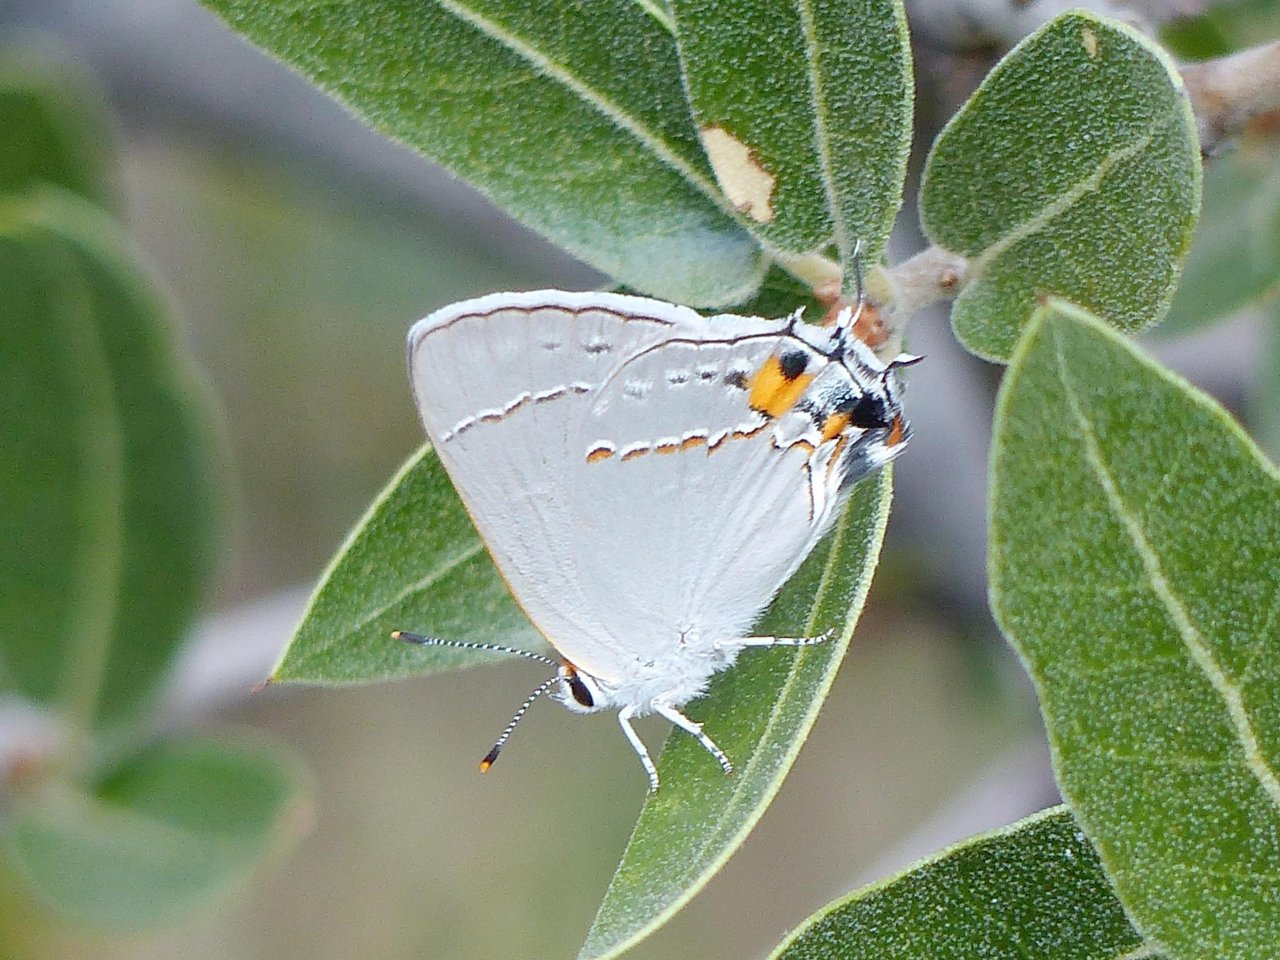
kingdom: Animalia
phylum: Arthropoda
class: Insecta
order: Lepidoptera
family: Lycaenidae
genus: Strymon
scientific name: Strymon melinus
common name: Gray Hairstreak
